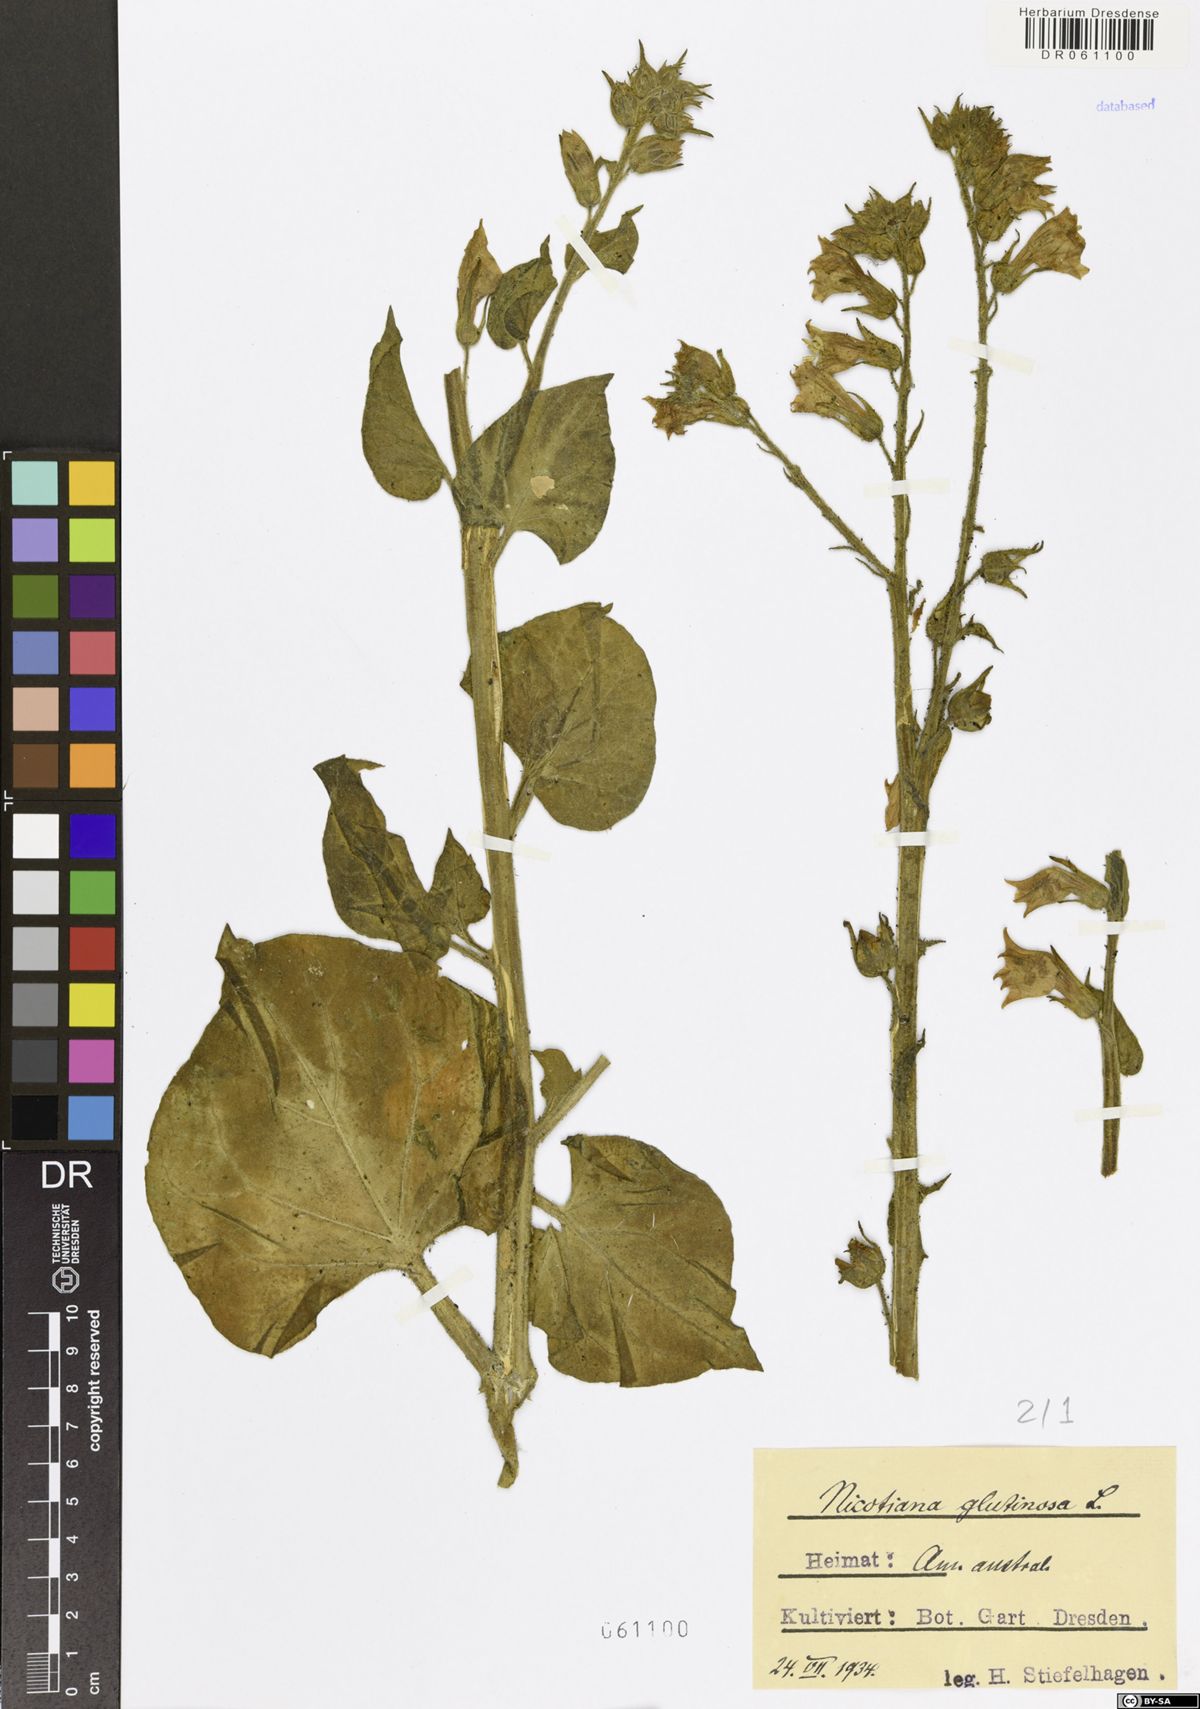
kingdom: Plantae
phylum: Tracheophyta
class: Magnoliopsida
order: Solanales
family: Solanaceae
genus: Nicotiana
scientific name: Nicotiana glutinosa
